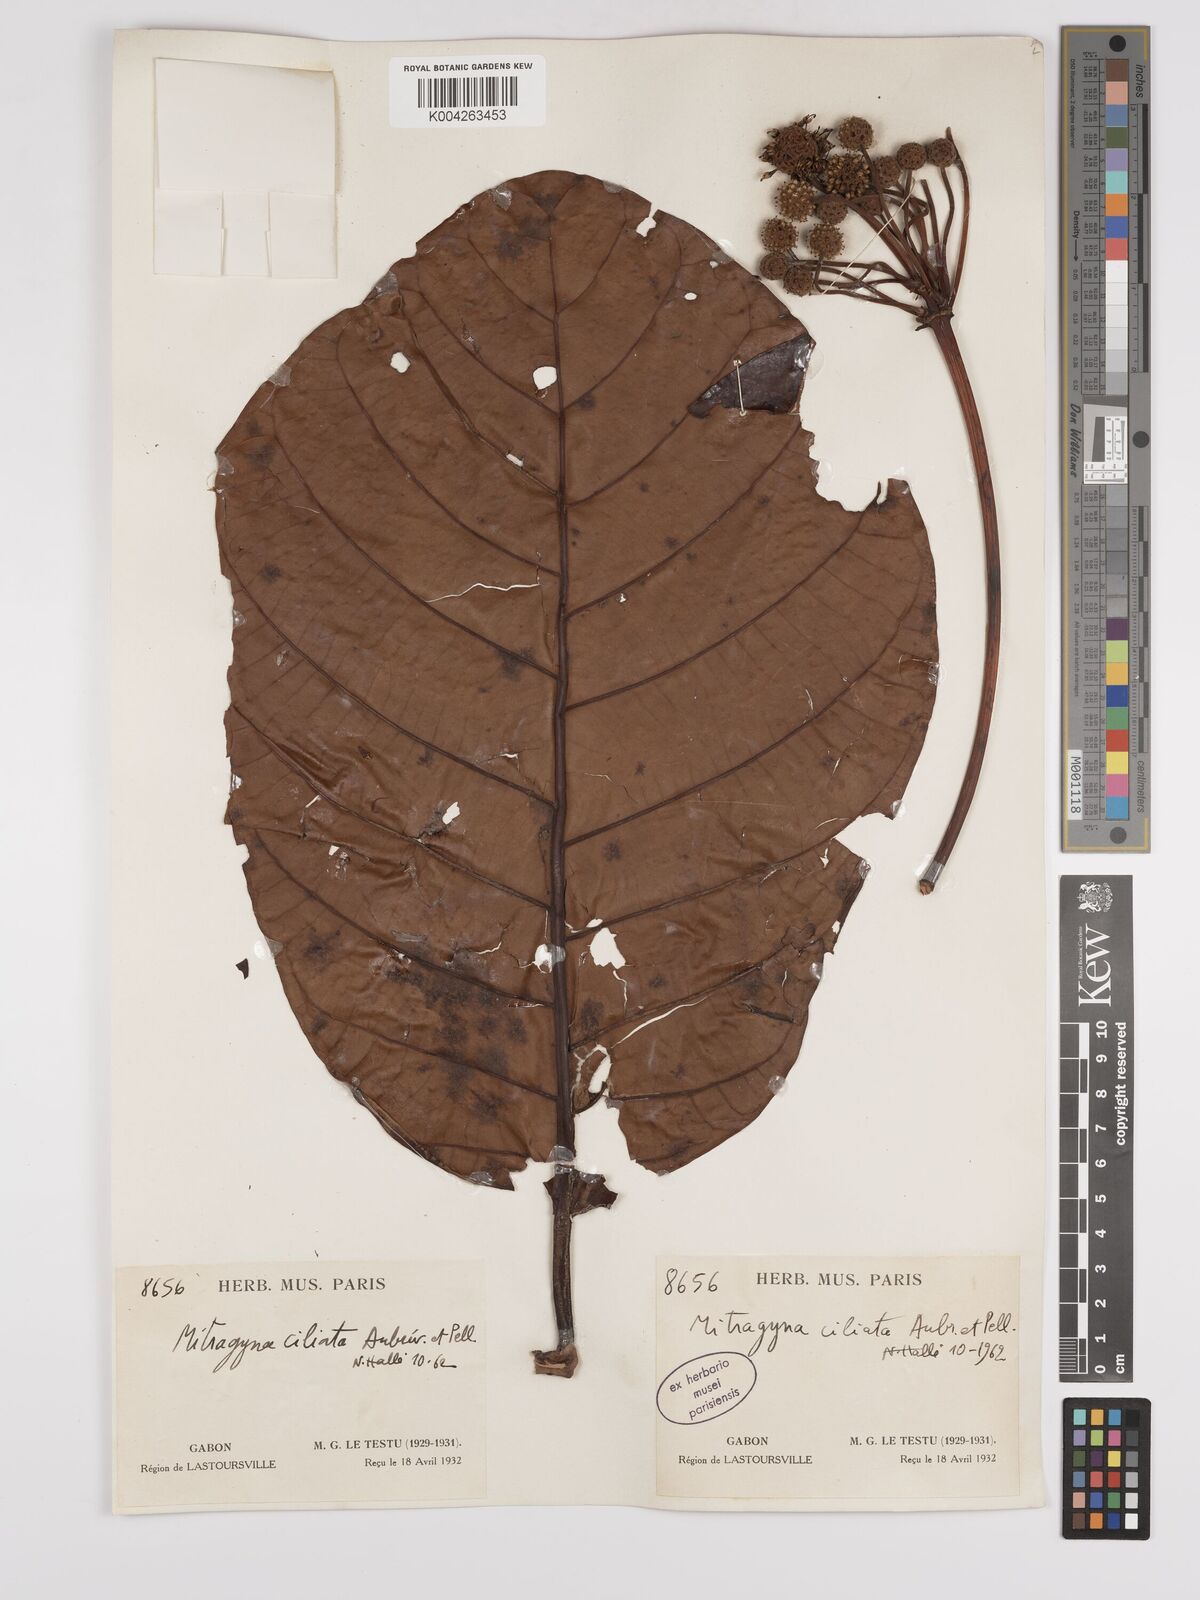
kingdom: Plantae
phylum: Tracheophyta
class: Magnoliopsida
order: Gentianales
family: Rubiaceae
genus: Mitragyna
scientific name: Mitragyna stipulosa
